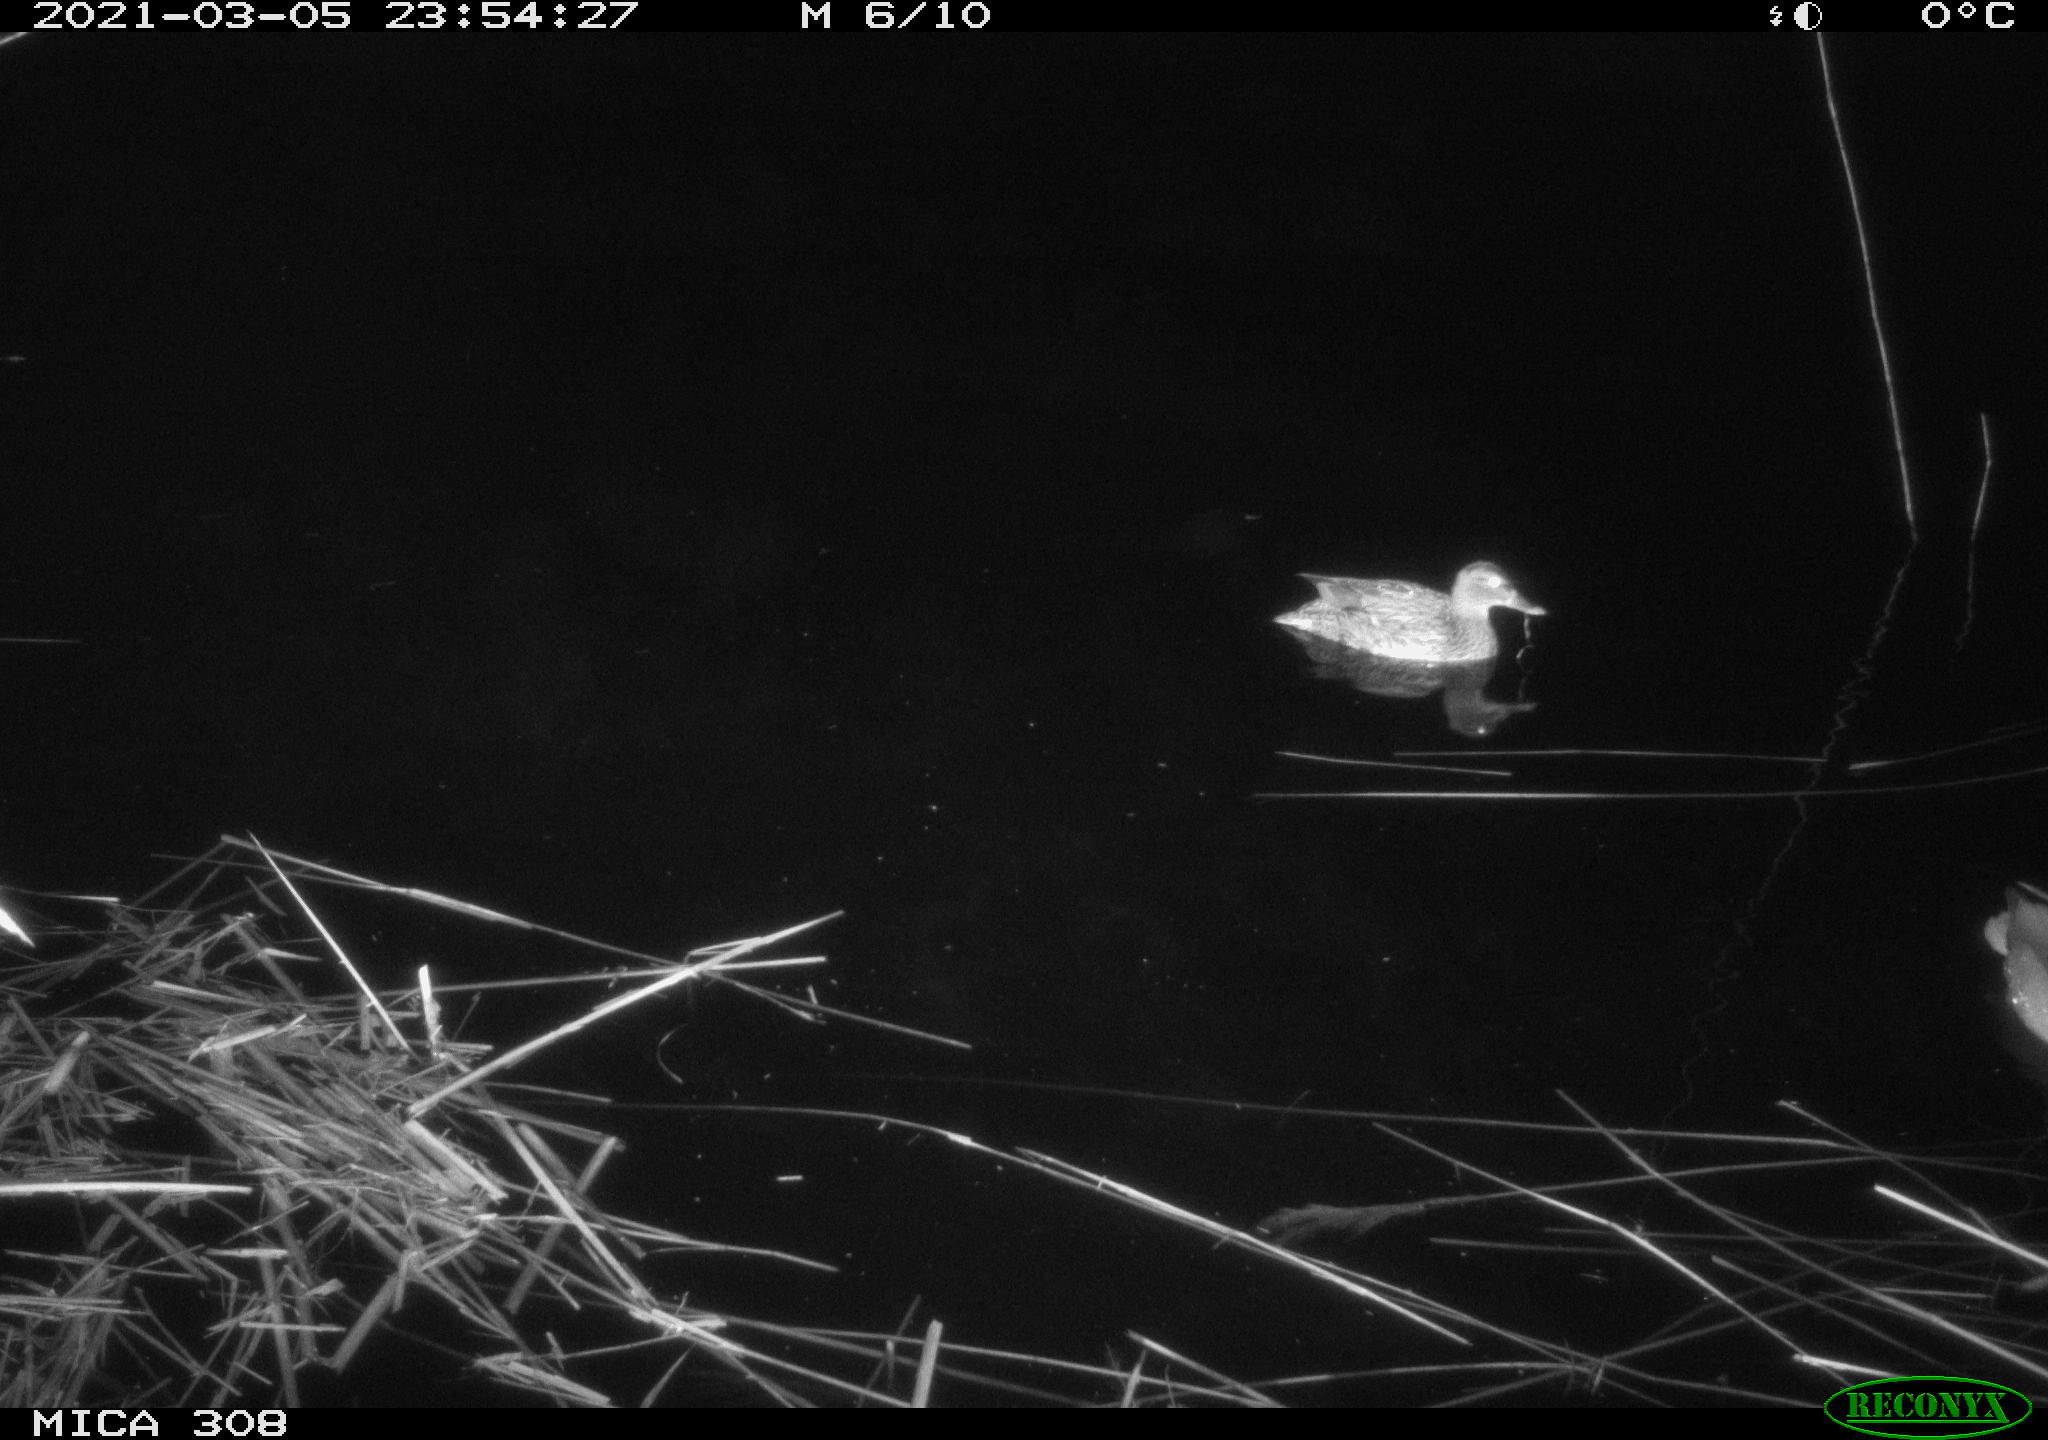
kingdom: Animalia
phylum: Chordata
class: Aves
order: Anseriformes
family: Anatidae
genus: Anas
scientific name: Anas platyrhynchos
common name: Mallard
